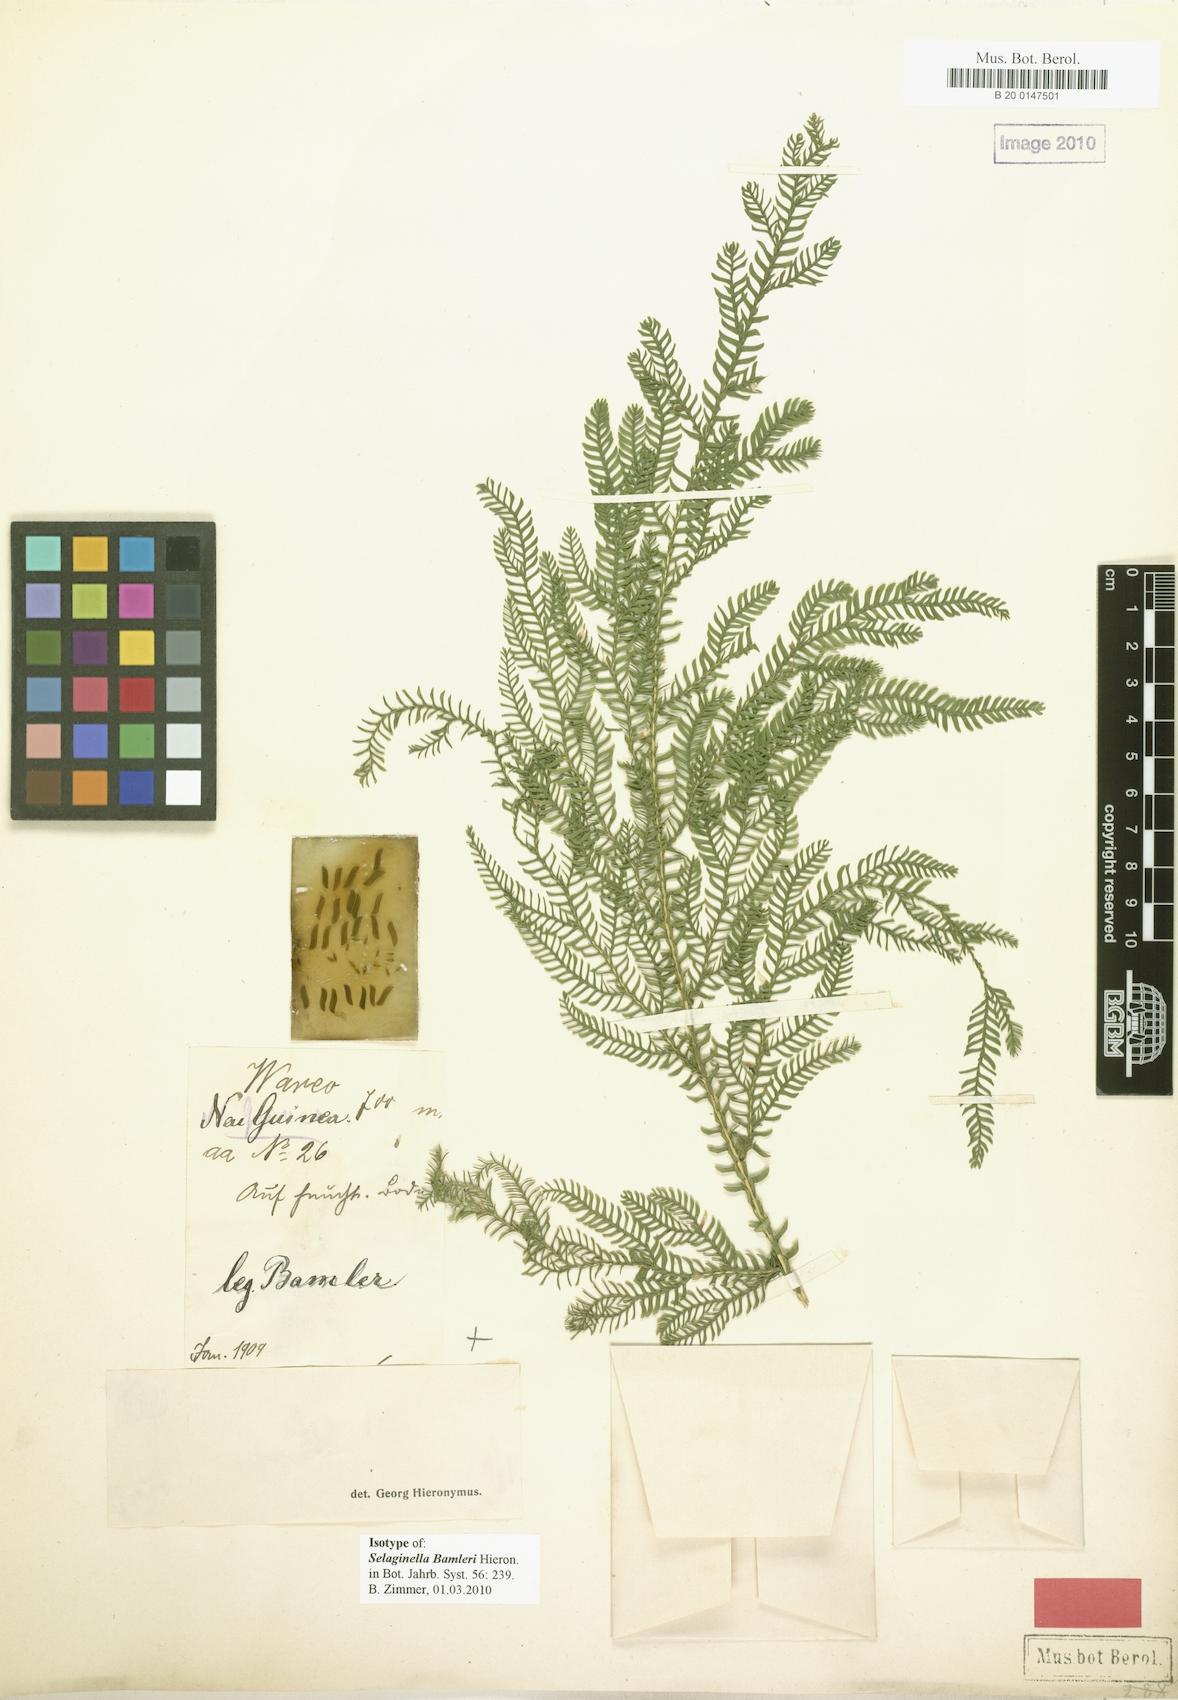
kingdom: Plantae
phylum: Tracheophyta
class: Lycopodiopsida
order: Selaginellales
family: Selaginellaceae
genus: Selaginella
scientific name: Selaginella bamleri
